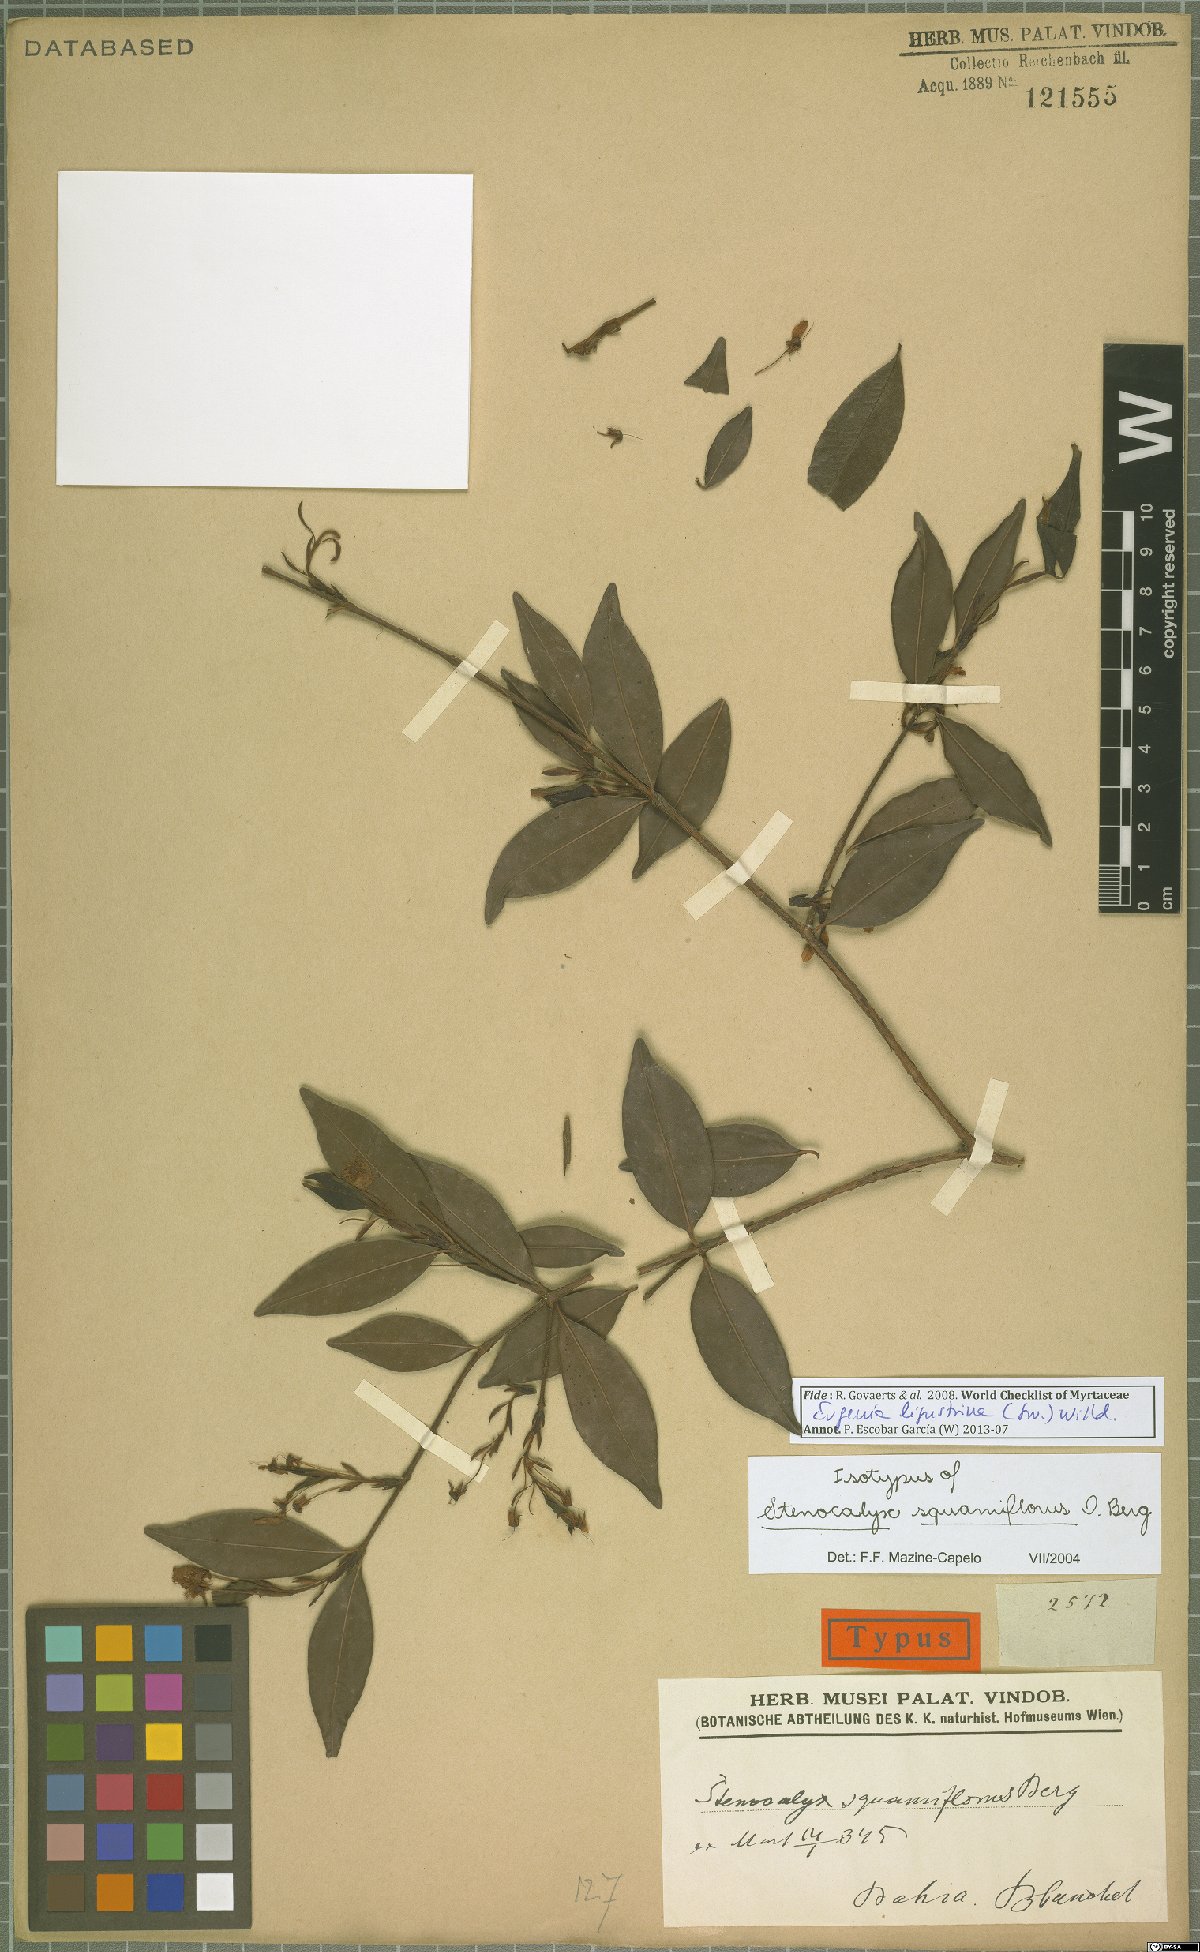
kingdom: Plantae
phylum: Tracheophyta
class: Magnoliopsida
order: Myrtales
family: Myrtaceae
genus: Eugenia
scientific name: Eugenia ligustrina
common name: Privet stopper
